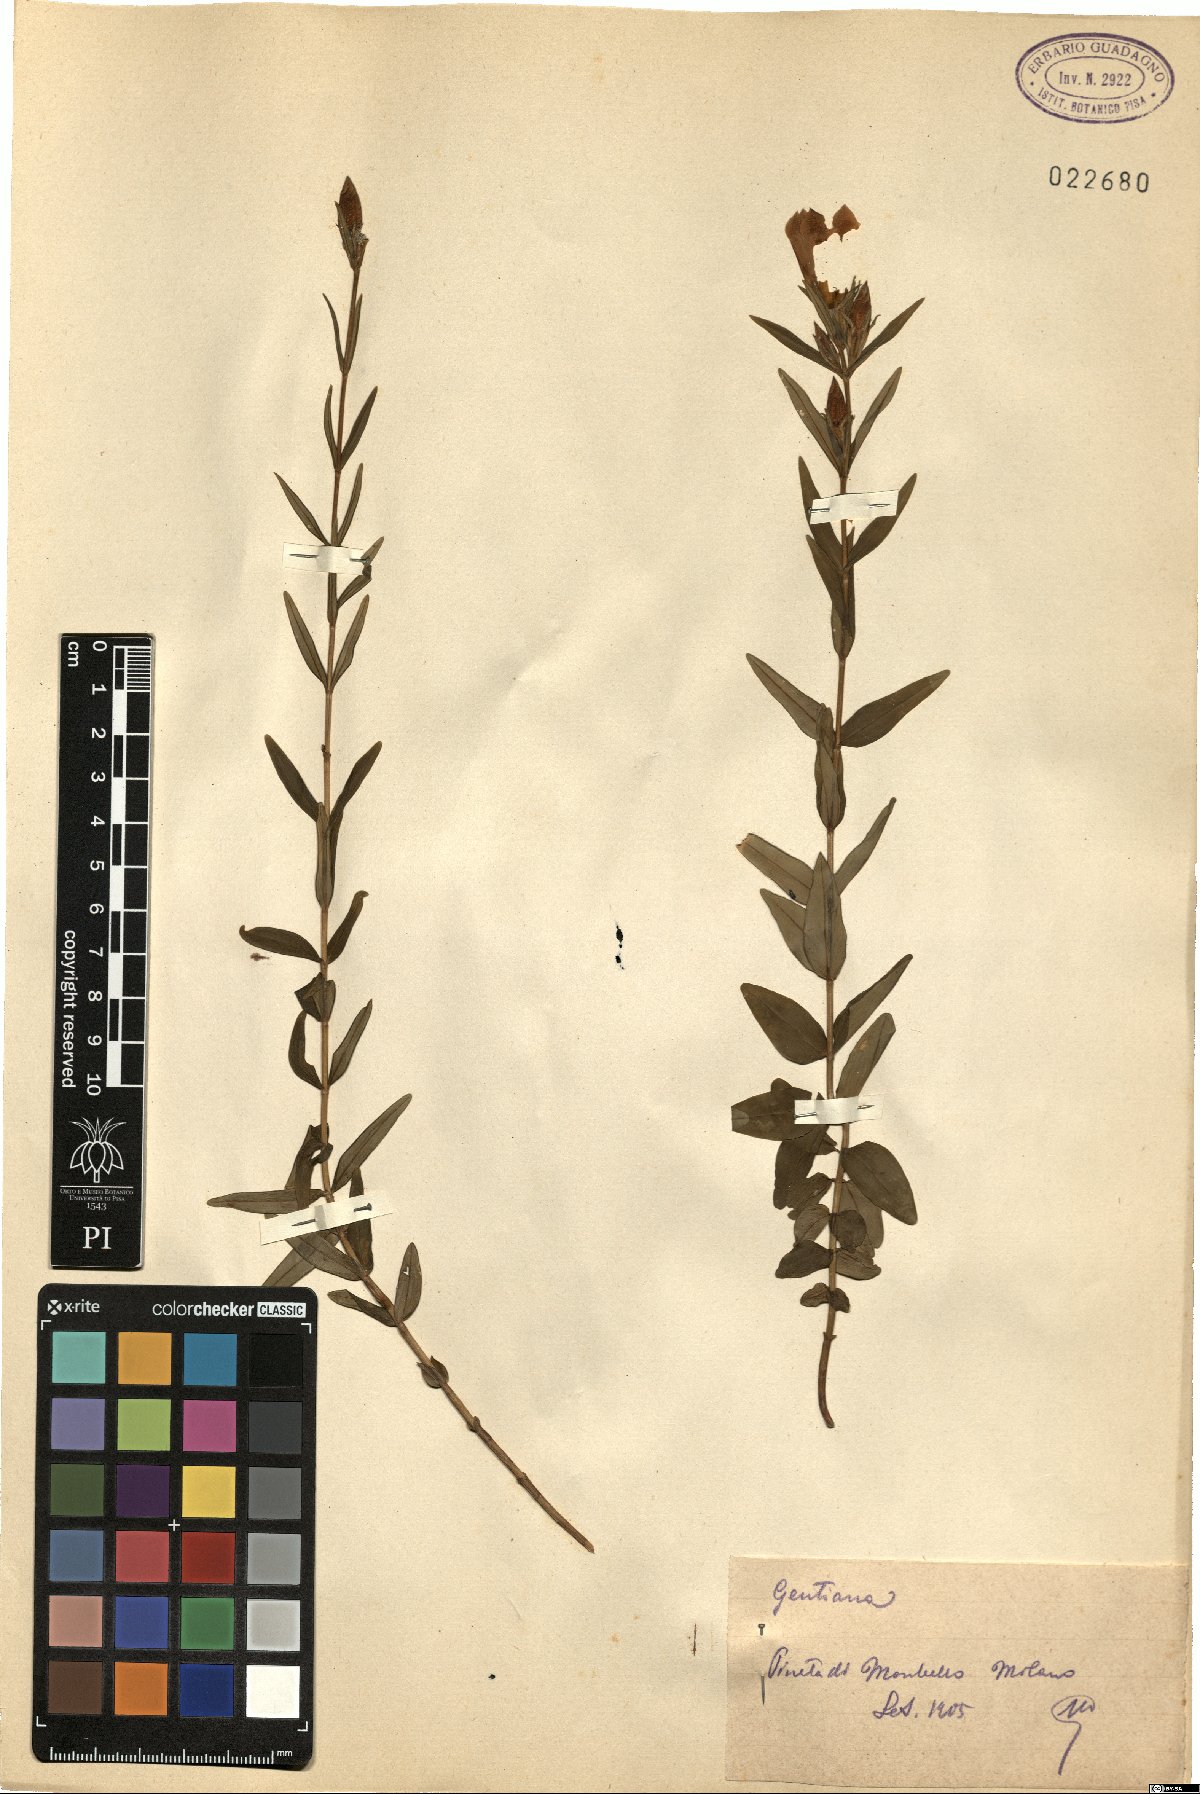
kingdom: Plantae
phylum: Tracheophyta
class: Magnoliopsida
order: Gentianales
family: Gentianaceae
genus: Gentiana
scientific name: Gentiana
